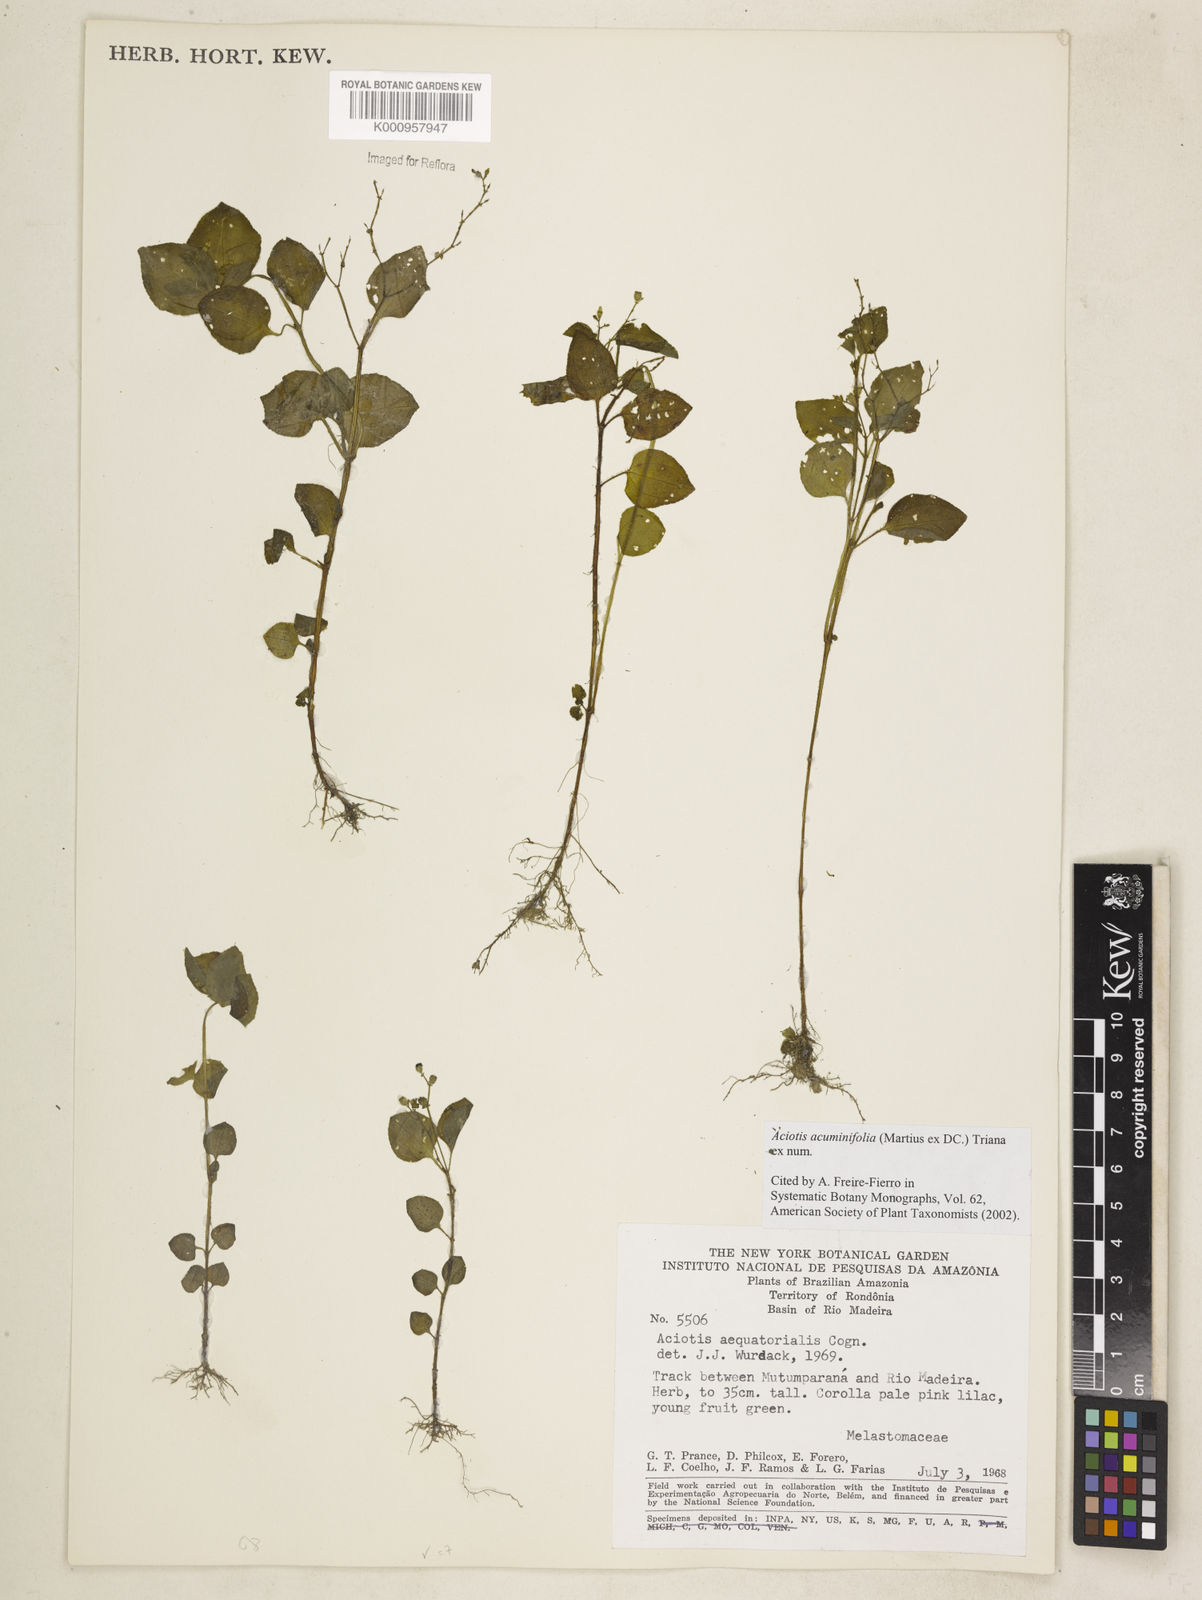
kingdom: Plantae
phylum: Tracheophyta
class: Magnoliopsida
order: Myrtales
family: Melastomataceae
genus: Aciotis
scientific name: Aciotis acuminifolia
